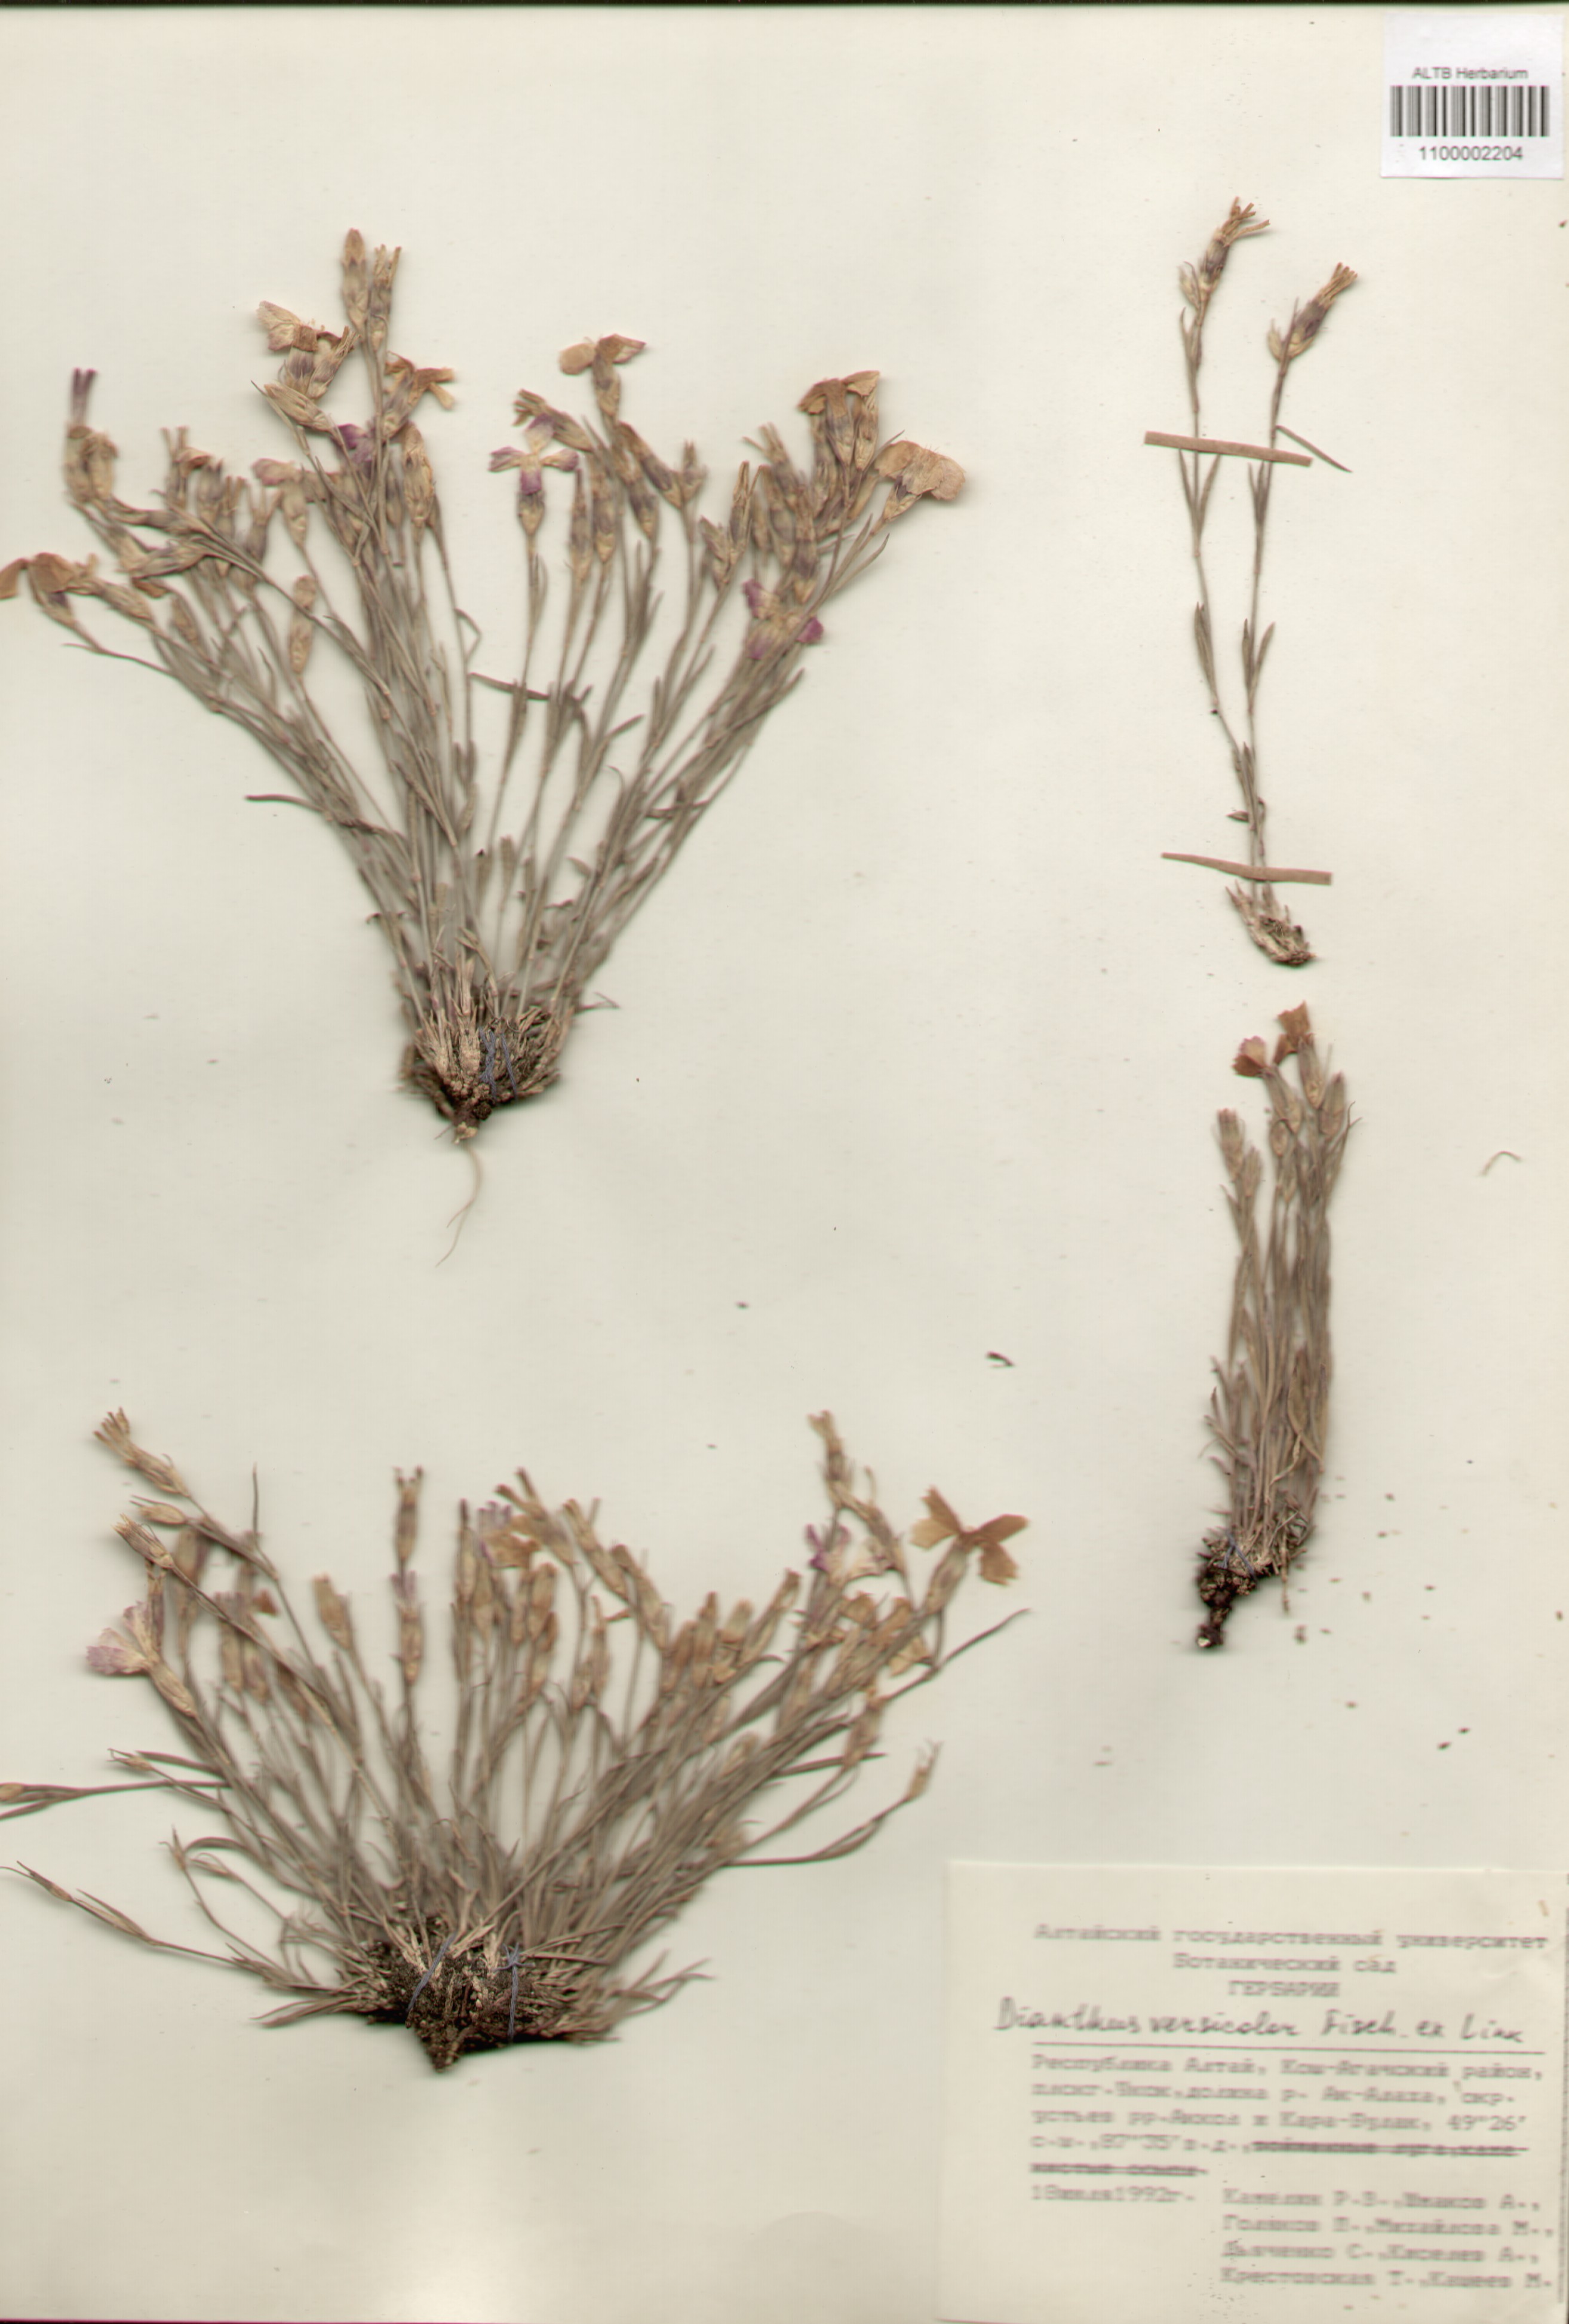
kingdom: Plantae
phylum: Tracheophyta
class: Magnoliopsida
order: Caryophyllales
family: Caryophyllaceae
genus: Dianthus
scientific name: Dianthus chinensis
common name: Rainbow pink
